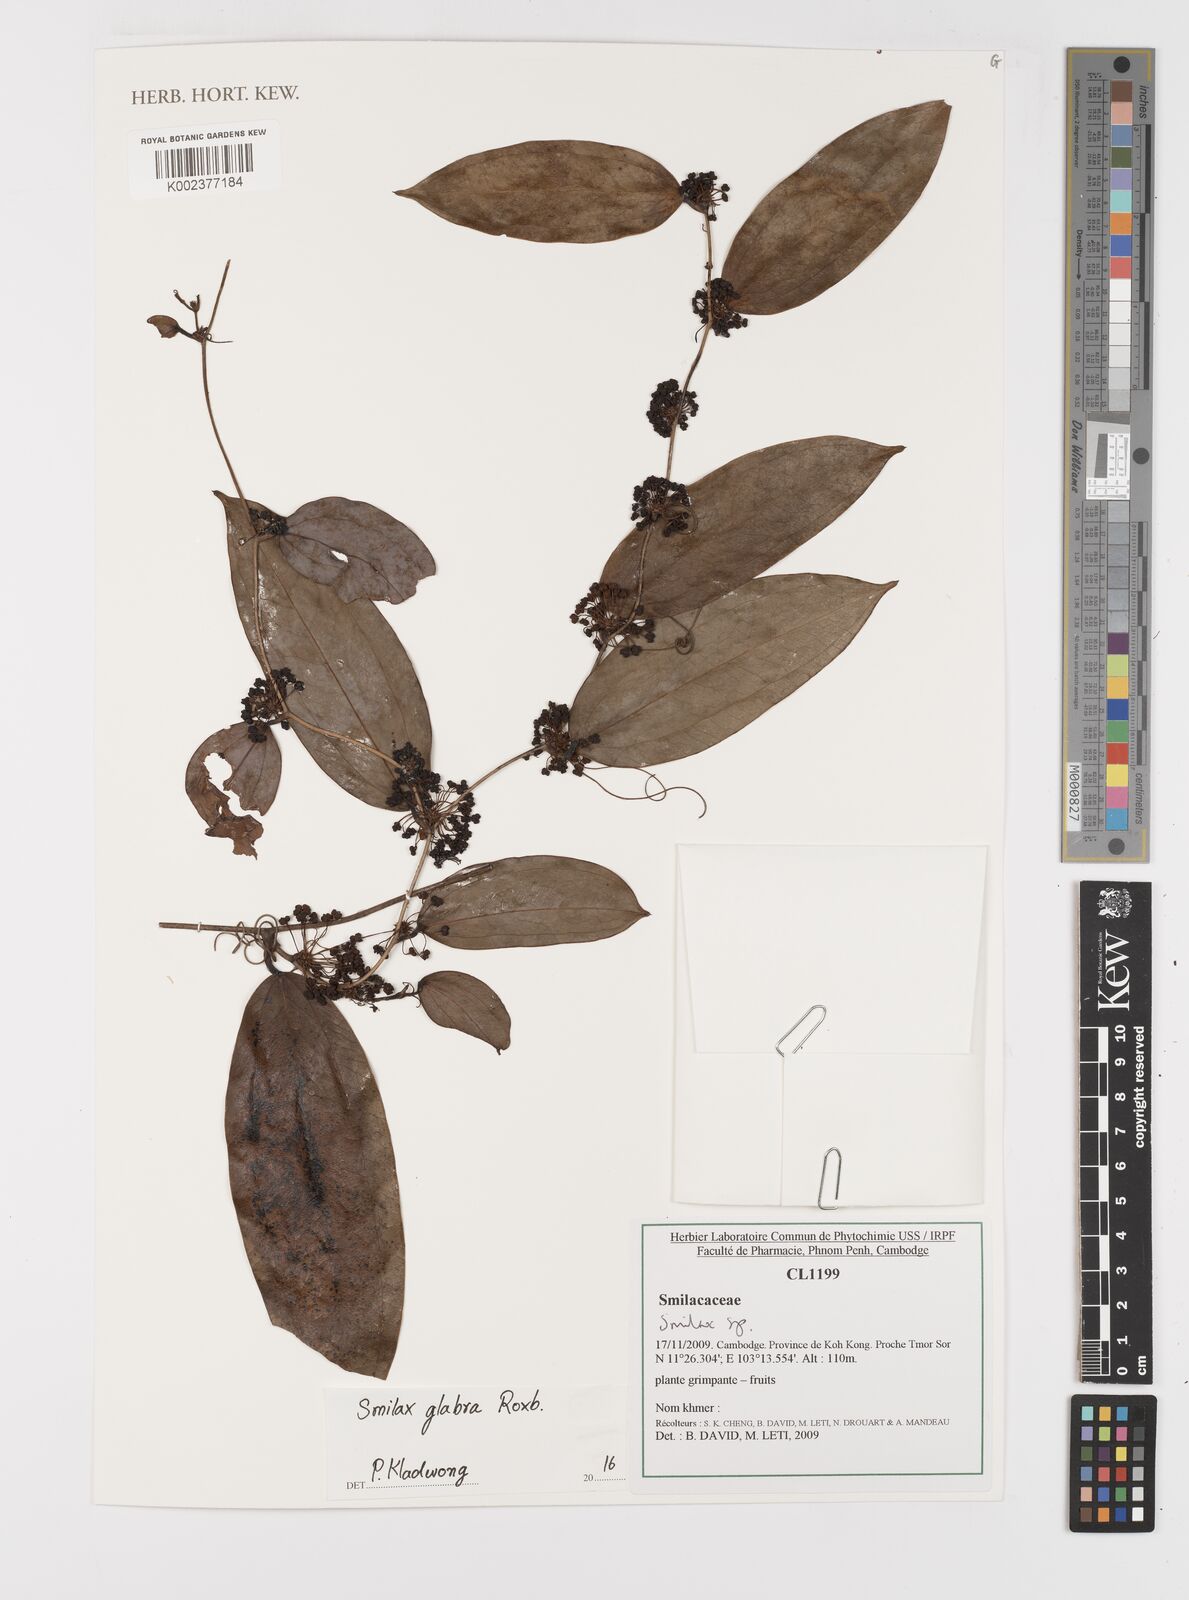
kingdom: Plantae
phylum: Tracheophyta
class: Liliopsida
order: Liliales
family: Smilacaceae
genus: Smilax
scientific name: Smilax glabra
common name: Chinese smilax
